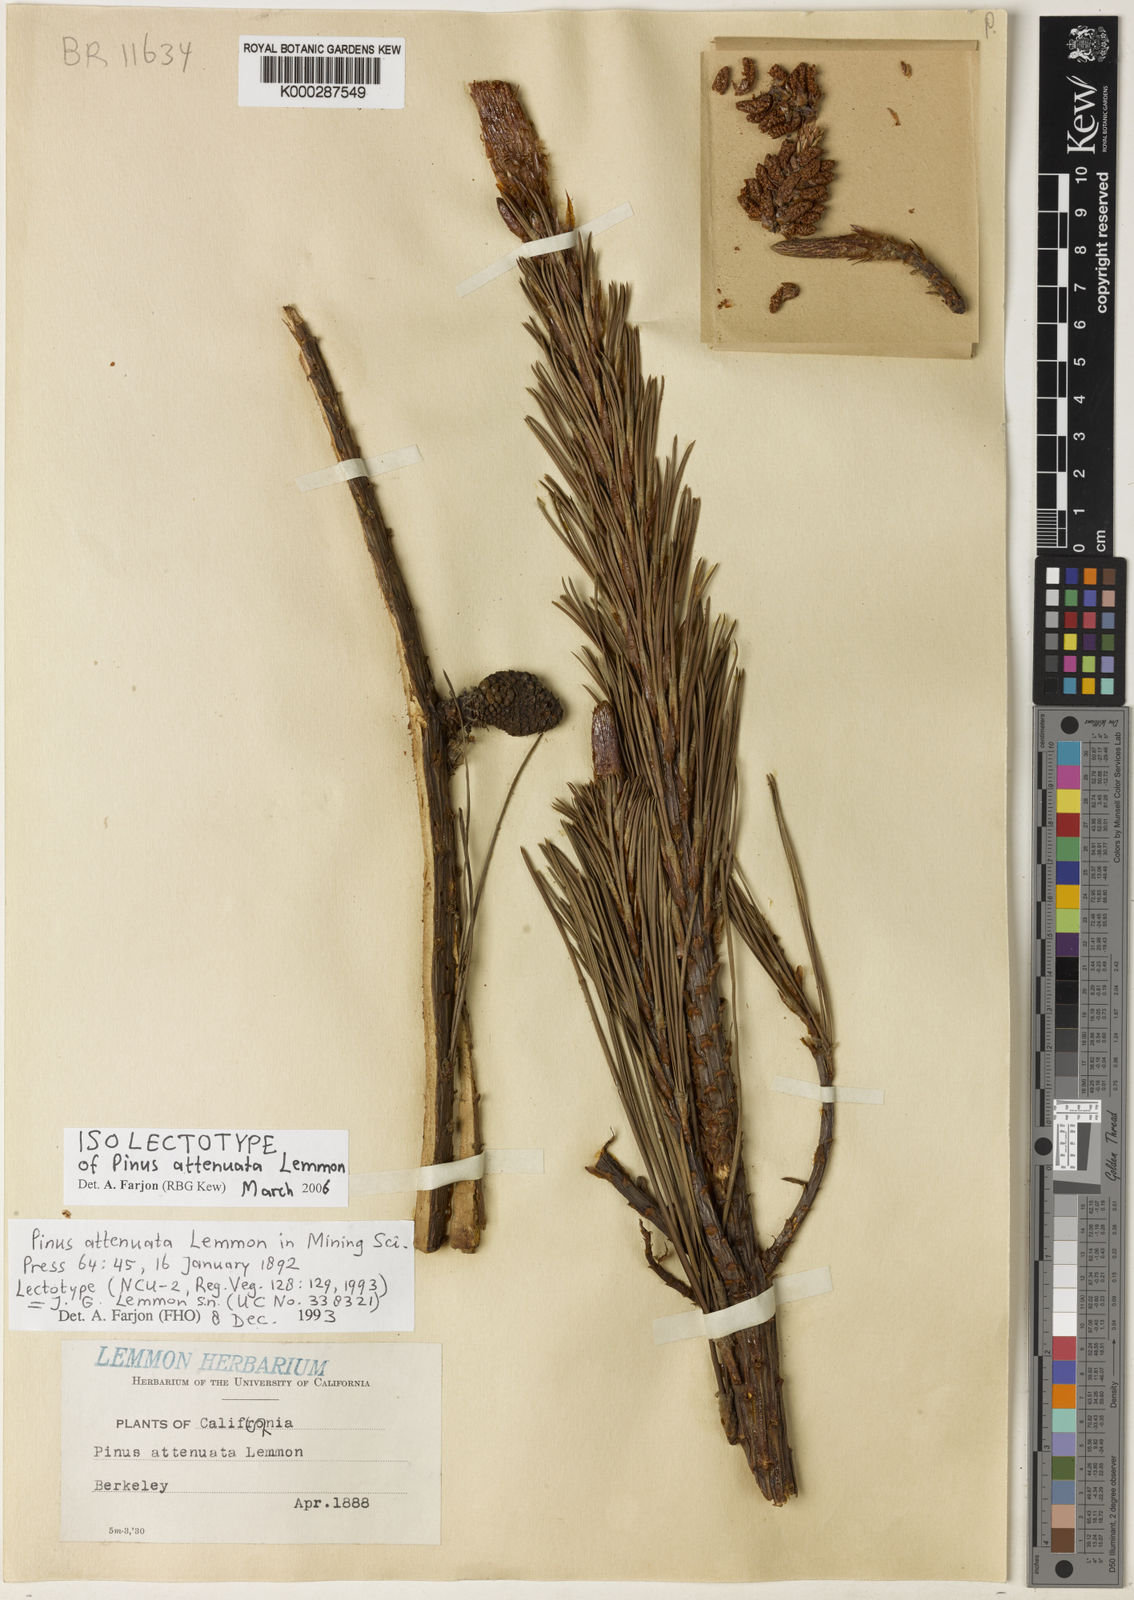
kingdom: Plantae
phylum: Tracheophyta
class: Pinopsida
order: Pinales
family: Pinaceae
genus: Pinus
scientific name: Pinus attenuata
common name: Knobcone pine
